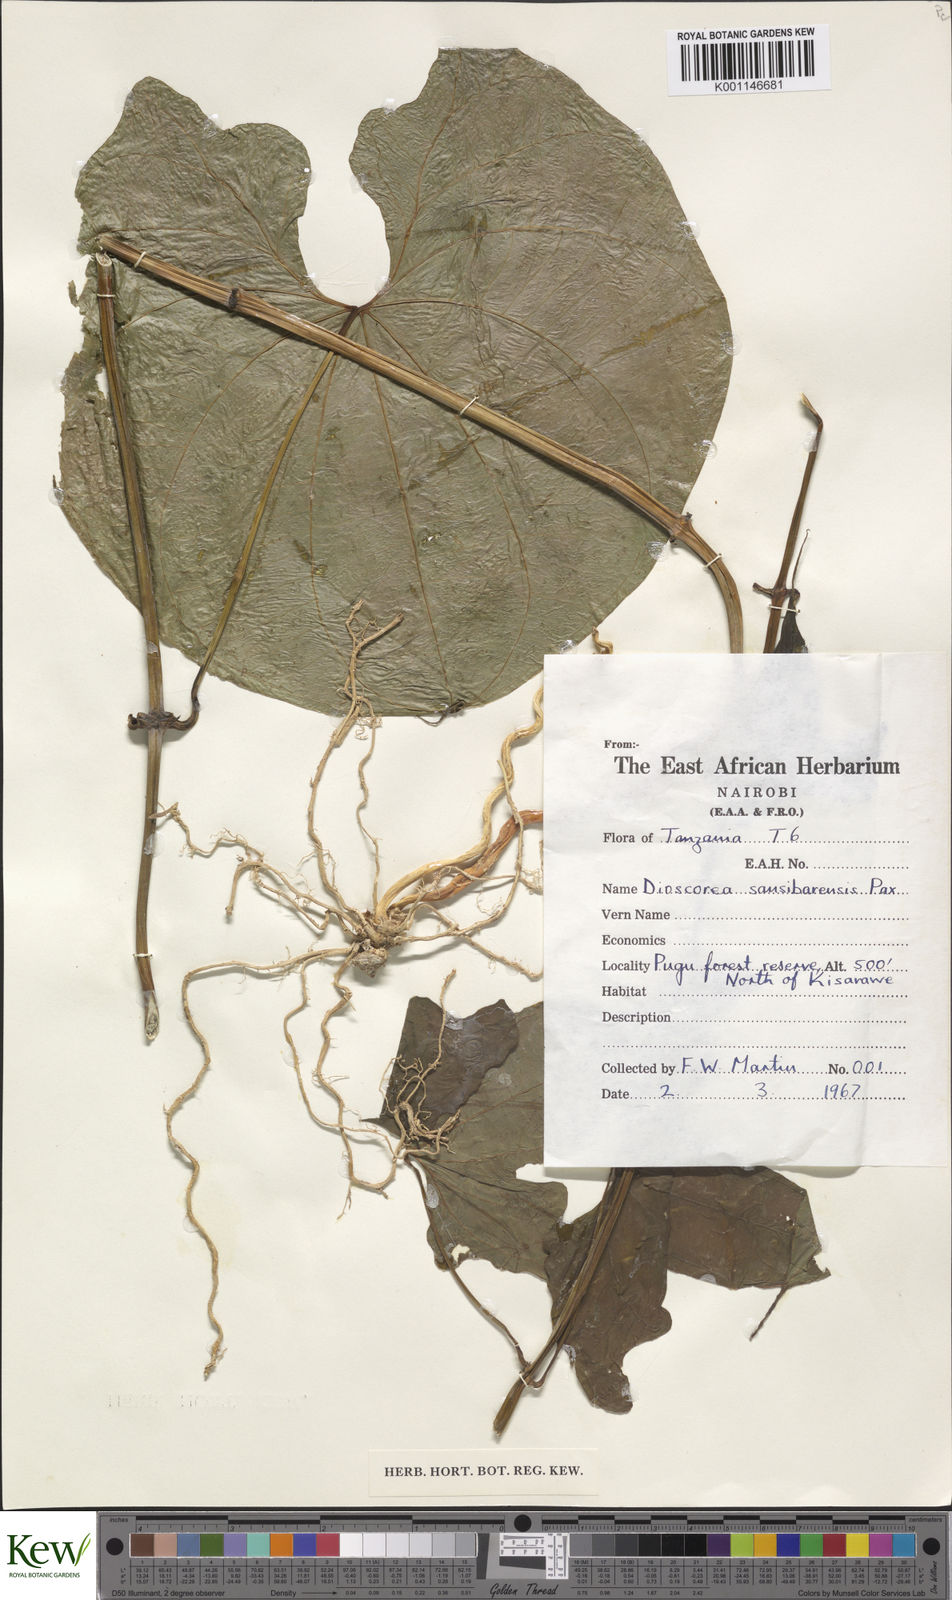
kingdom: Plantae
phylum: Tracheophyta
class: Liliopsida
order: Dioscoreales
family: Dioscoreaceae
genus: Dioscorea
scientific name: Dioscorea sansibarensis
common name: Zanzibar yam
